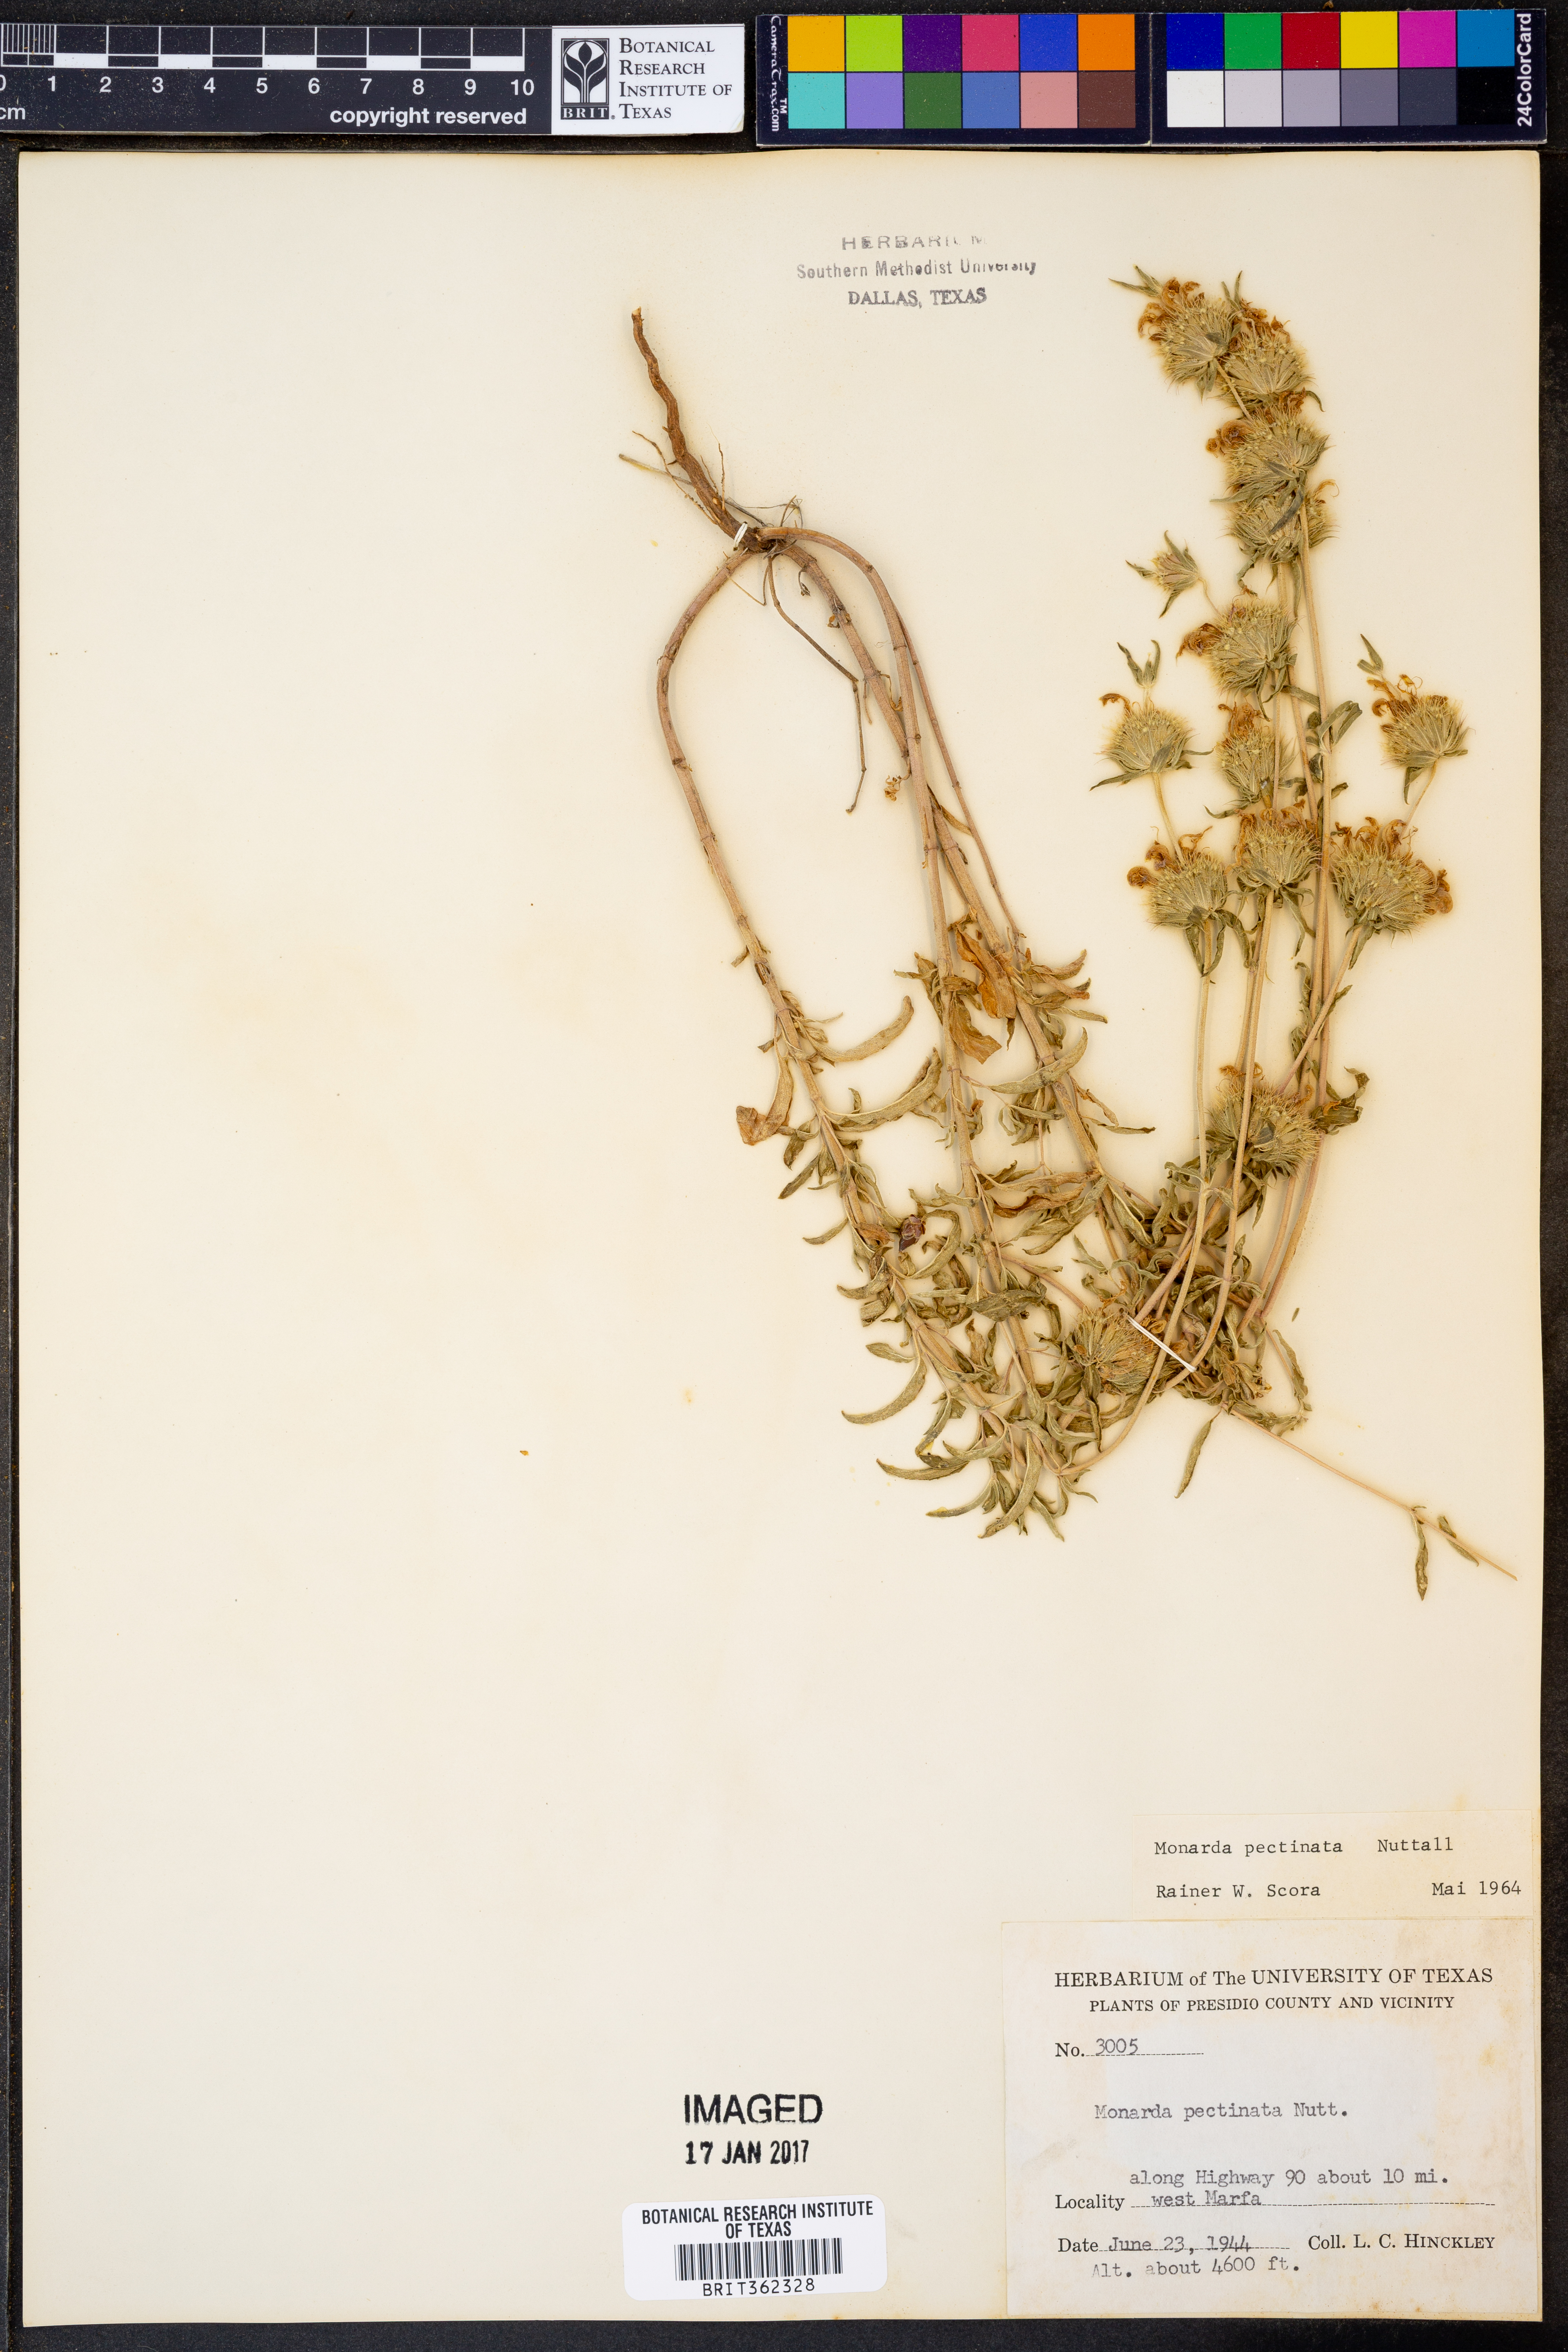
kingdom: Plantae
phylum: Tracheophyta
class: Magnoliopsida
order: Lamiales
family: Lamiaceae
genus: Monarda
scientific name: Monarda pectinata
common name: Plains beebalm
